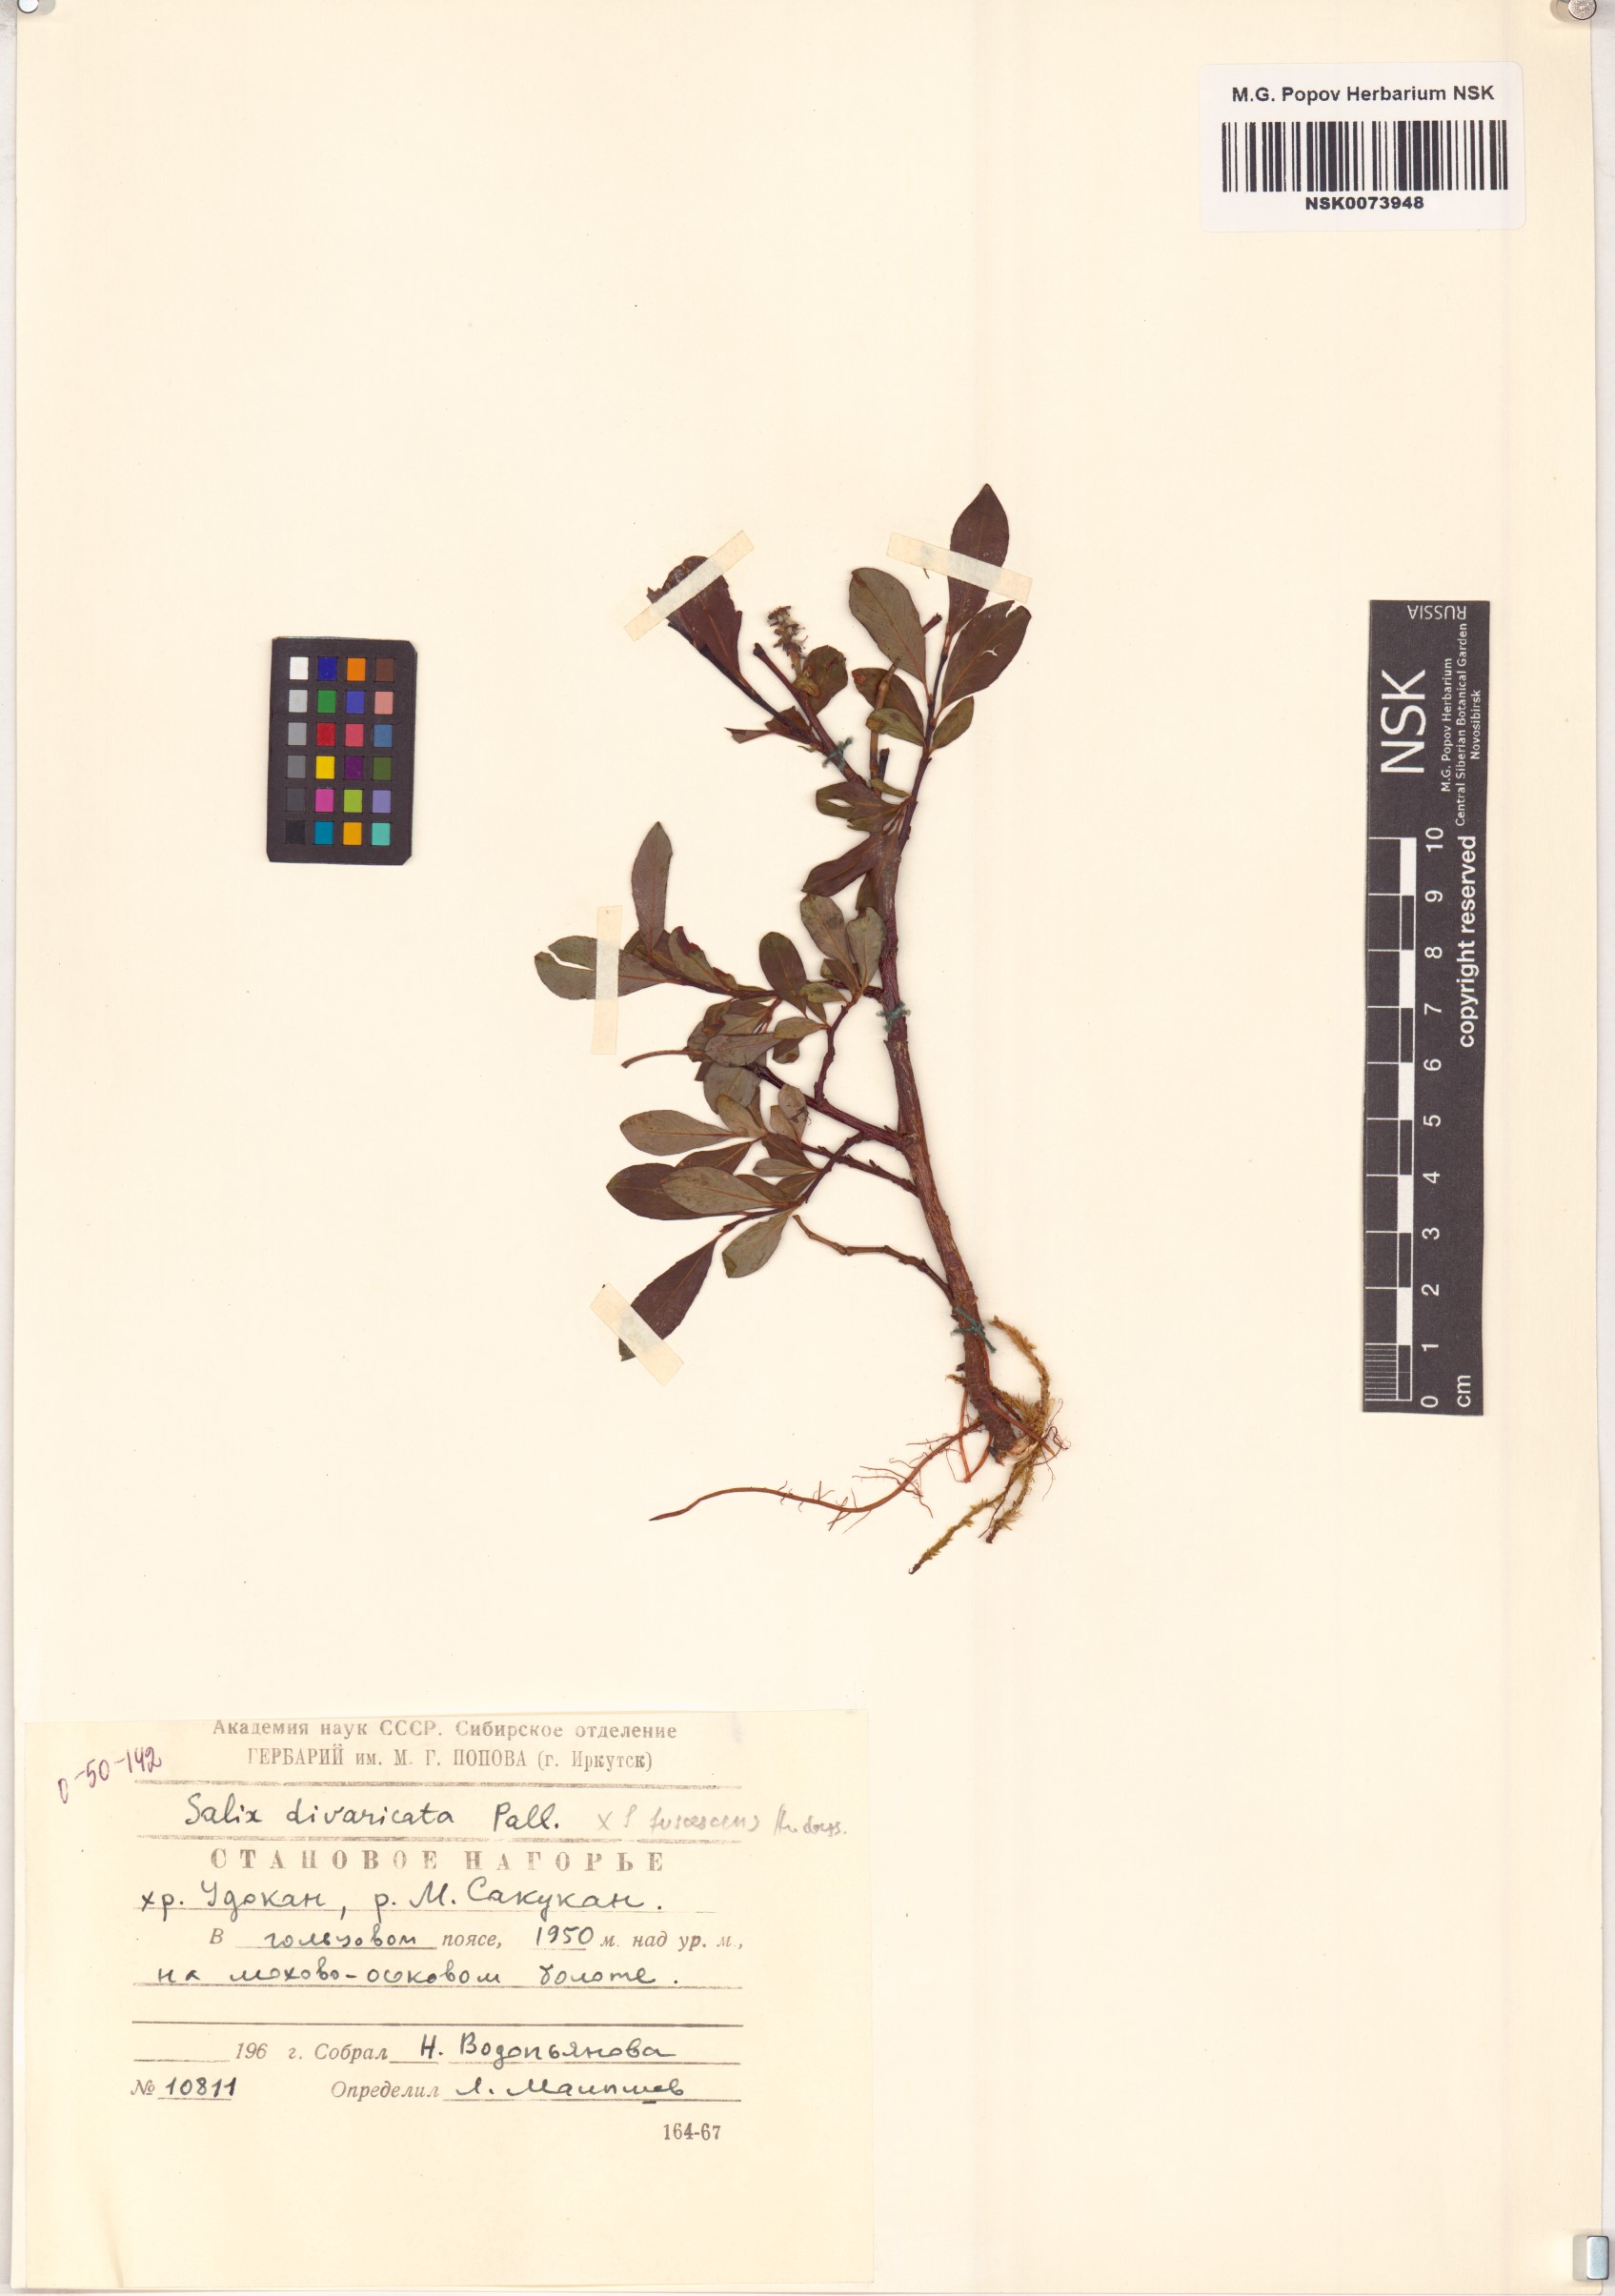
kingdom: Plantae
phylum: Tracheophyta
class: Magnoliopsida
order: Malpighiales
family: Salicaceae
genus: Salix
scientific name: Salix divaricata
